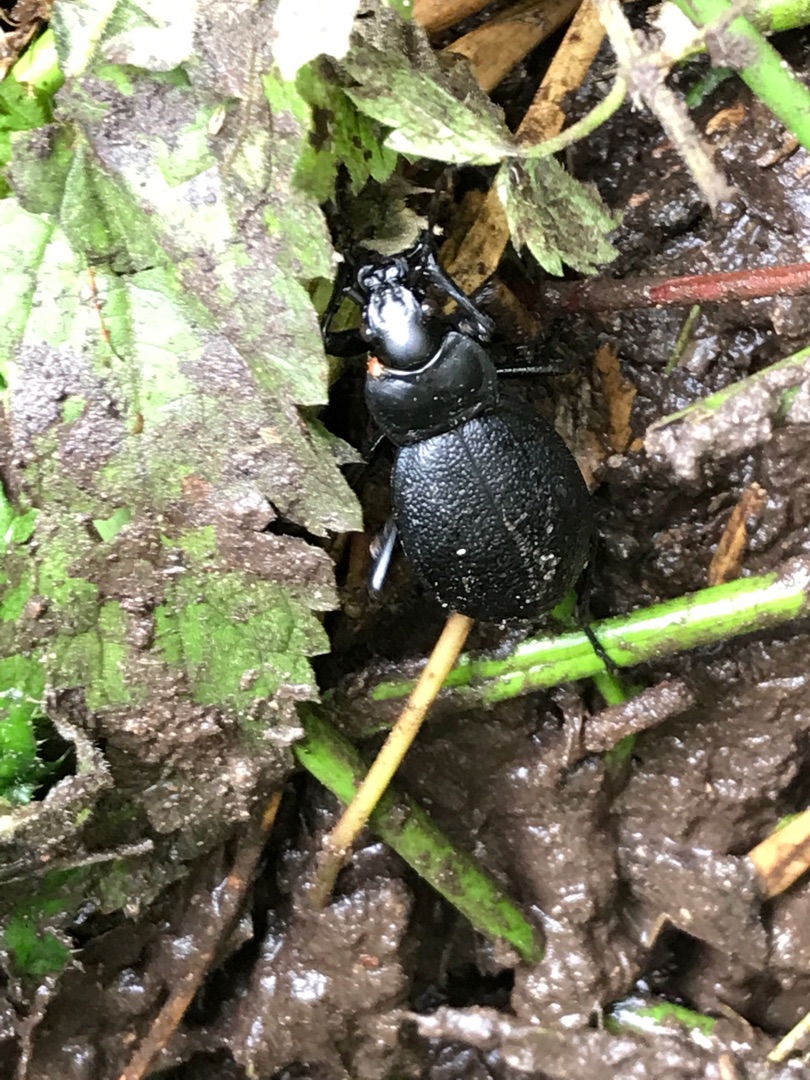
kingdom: Animalia
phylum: Arthropoda
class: Insecta
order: Coleoptera
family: Carabidae
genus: Carabus
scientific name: Carabus coriaceus
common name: Læderløber
